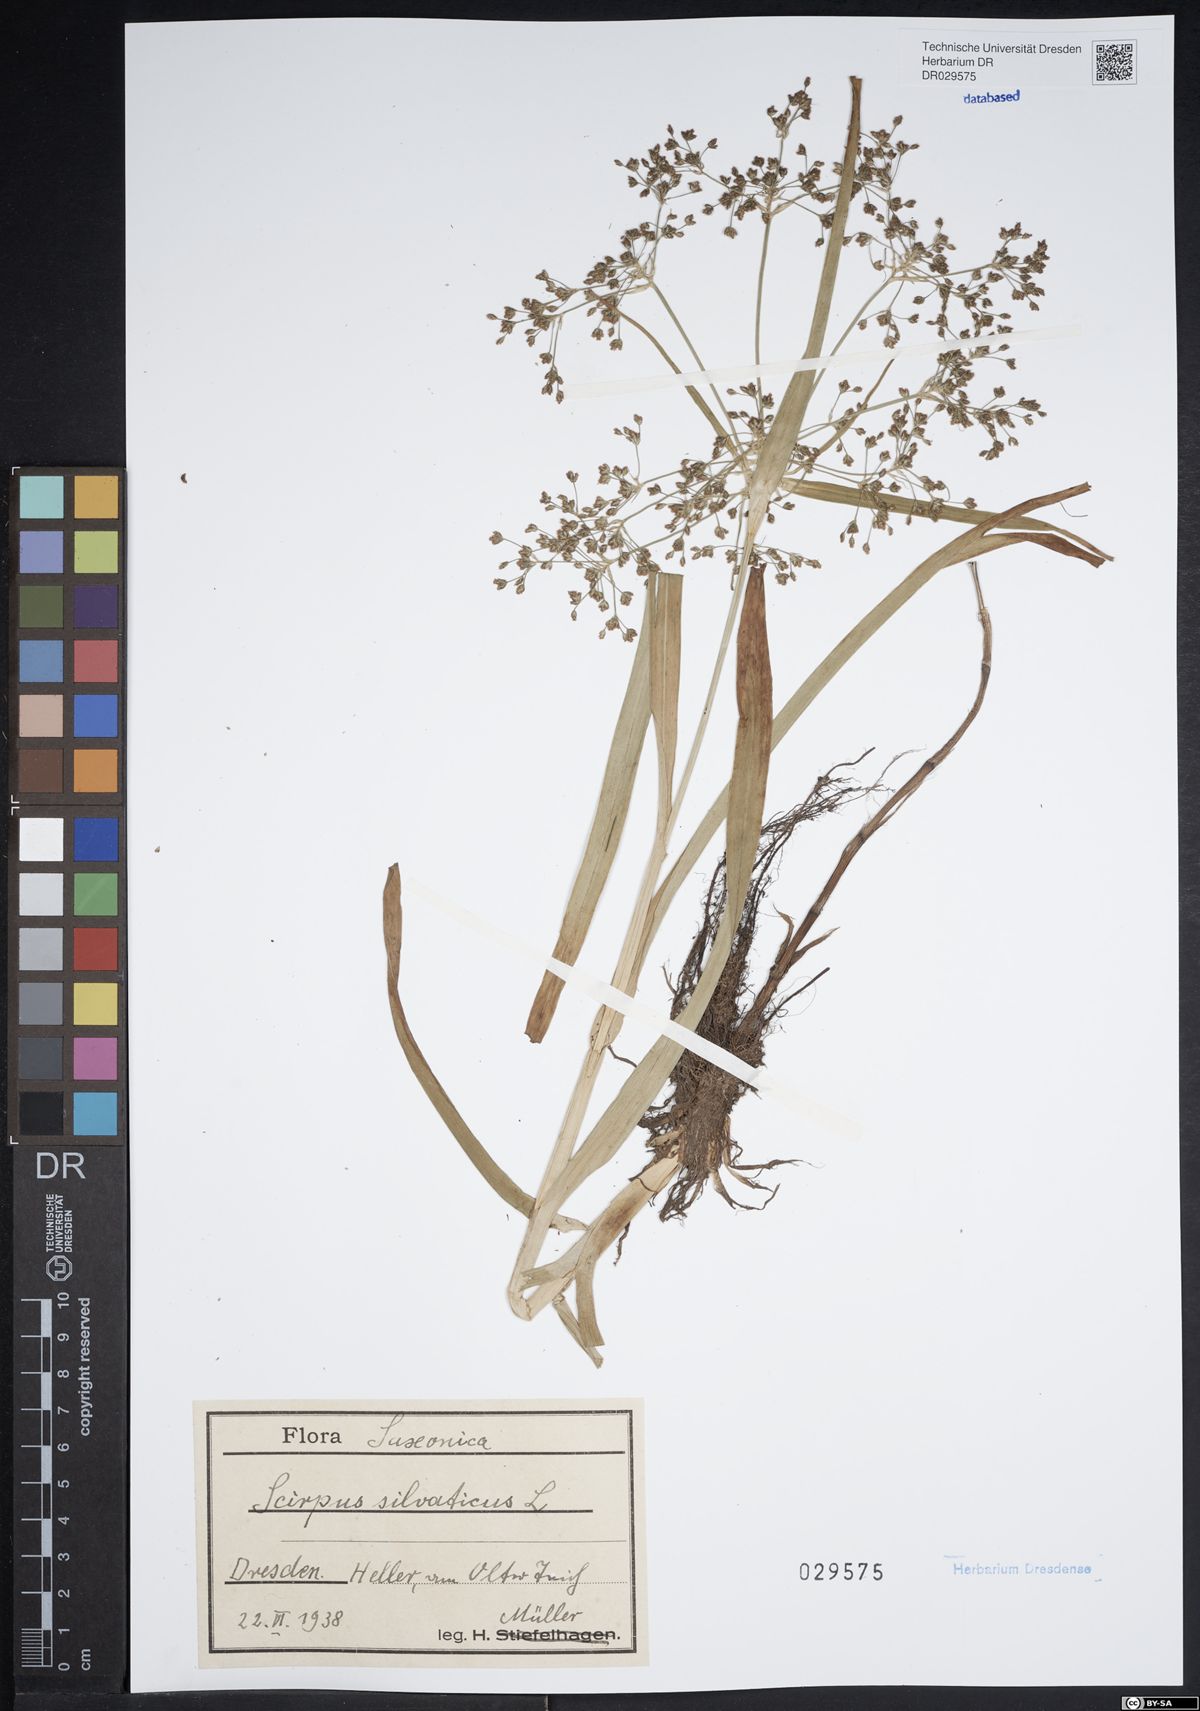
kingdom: Plantae
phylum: Tracheophyta
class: Liliopsida
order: Poales
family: Cyperaceae
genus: Scirpus
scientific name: Scirpus sylvaticus
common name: Wood club-rush
